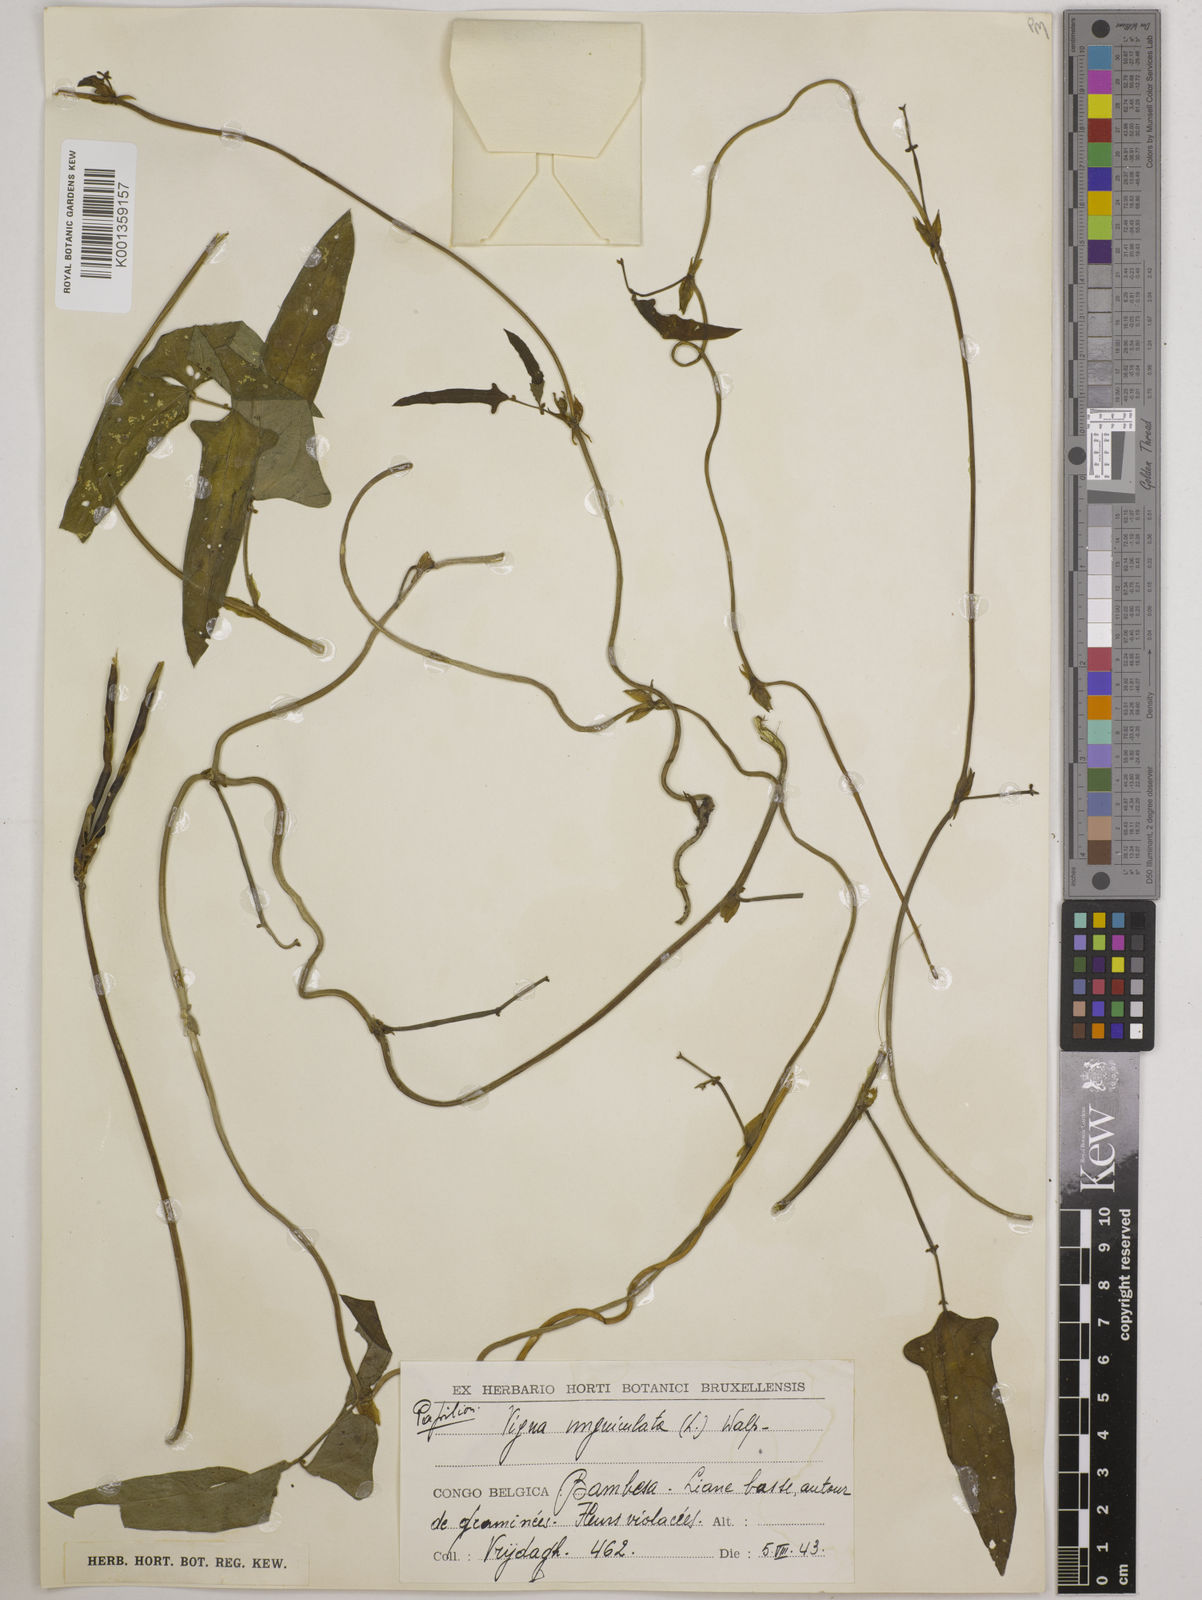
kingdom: Plantae
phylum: Tracheophyta
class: Magnoliopsida
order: Fabales
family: Fabaceae
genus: Vigna
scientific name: Vigna
